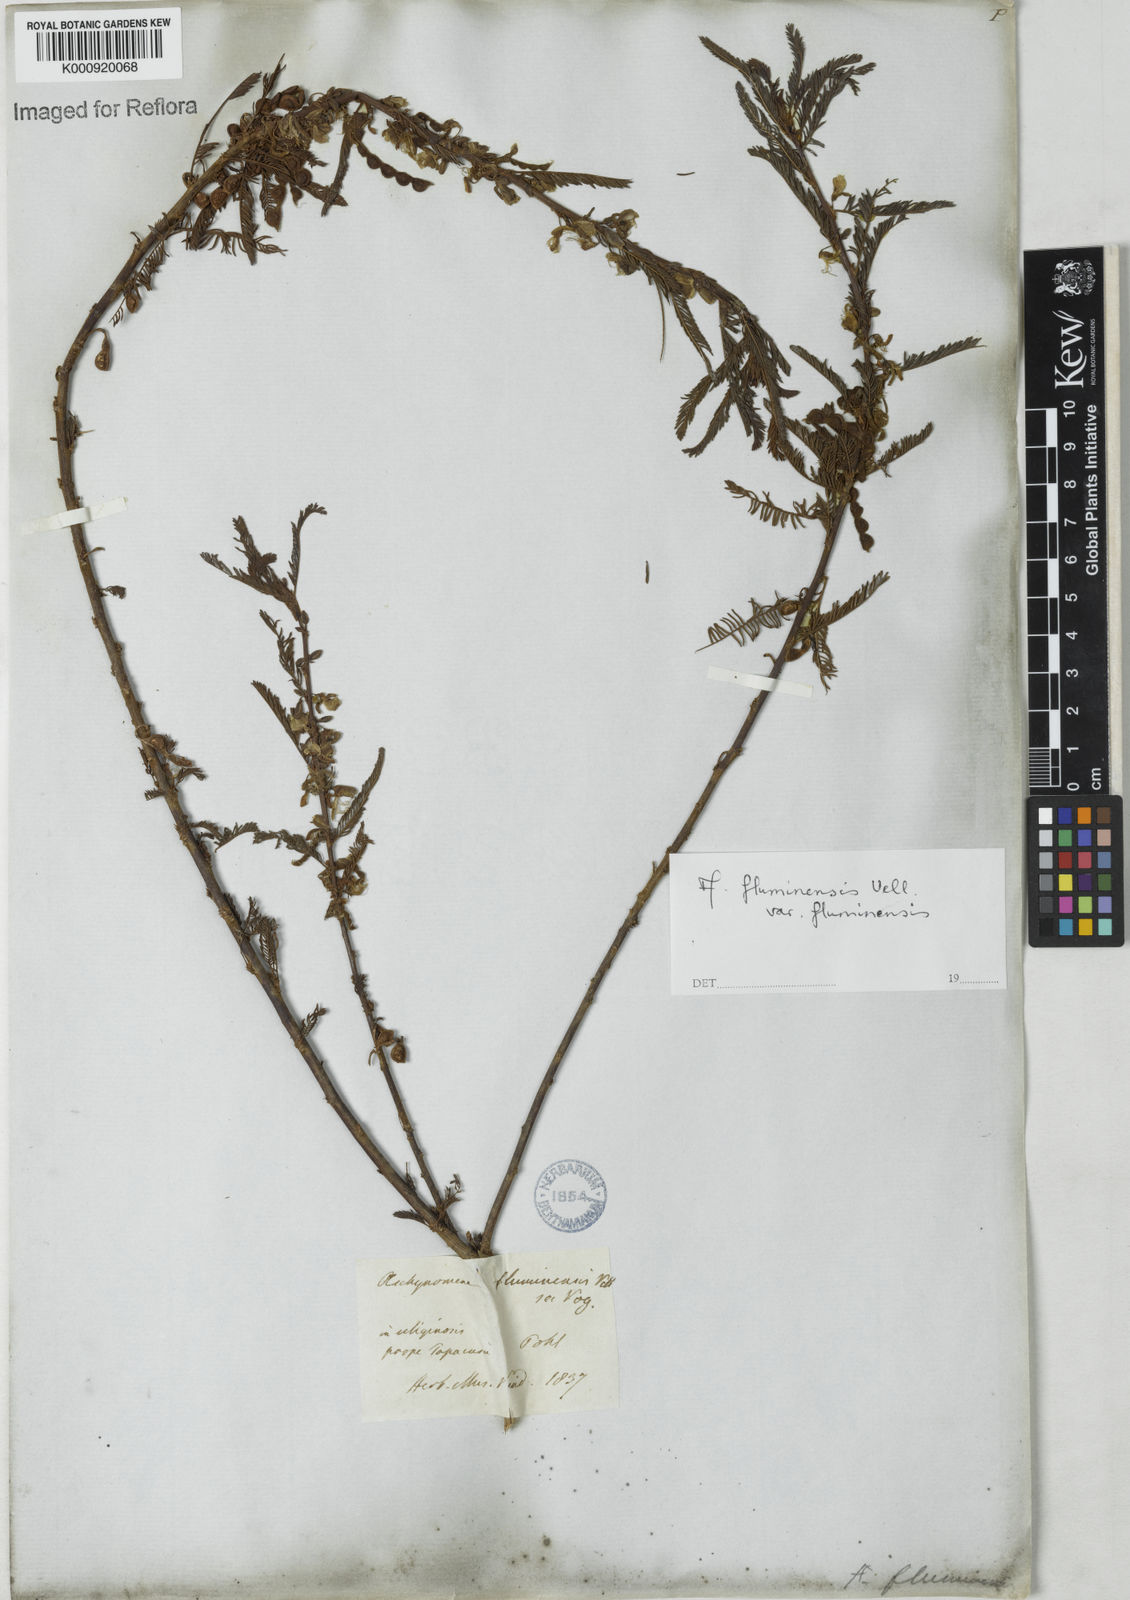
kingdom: Plantae
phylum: Tracheophyta
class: Magnoliopsida
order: Fabales
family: Fabaceae
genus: Aeschynomene
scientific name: Aeschynomene fluminensis
